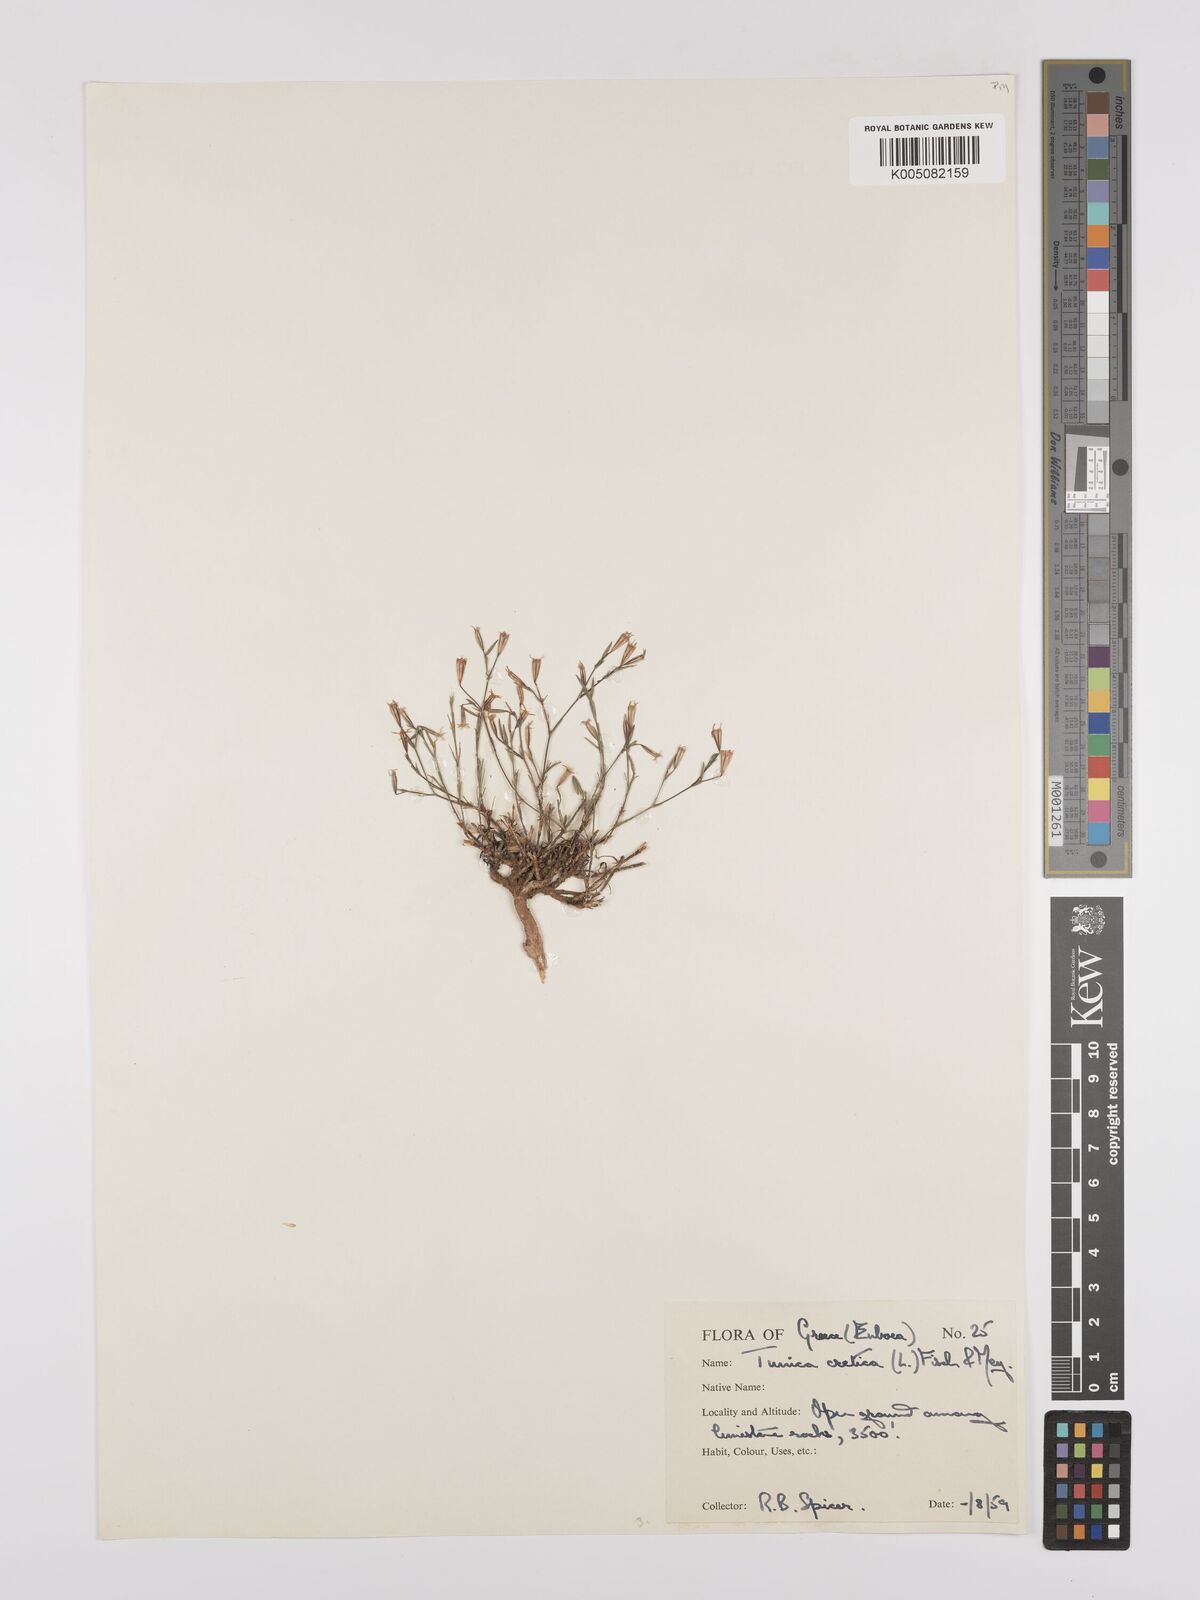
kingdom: Plantae
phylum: Tracheophyta
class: Magnoliopsida
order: Caryophyllales
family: Caryophyllaceae
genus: Petrorhagia
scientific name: Petrorhagia cretica
